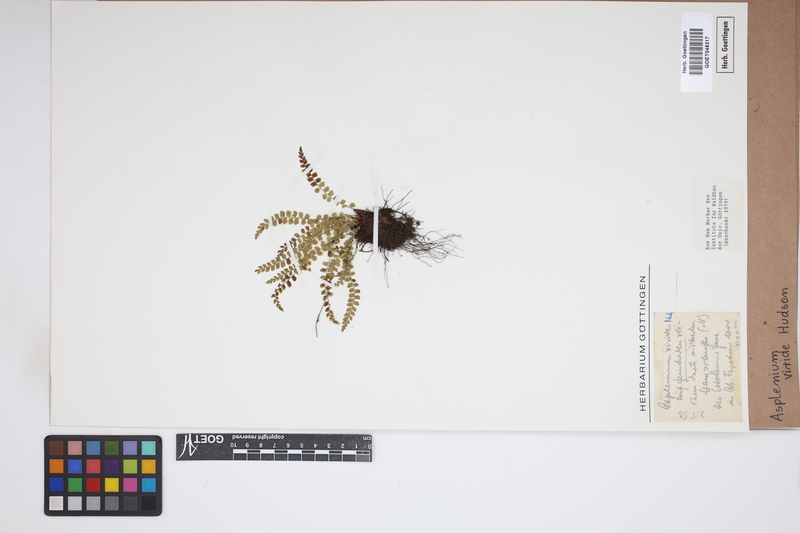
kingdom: Plantae
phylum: Tracheophyta
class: Polypodiopsida
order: Polypodiales
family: Aspleniaceae
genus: Asplenium
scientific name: Asplenium viride
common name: Green spleenwort
